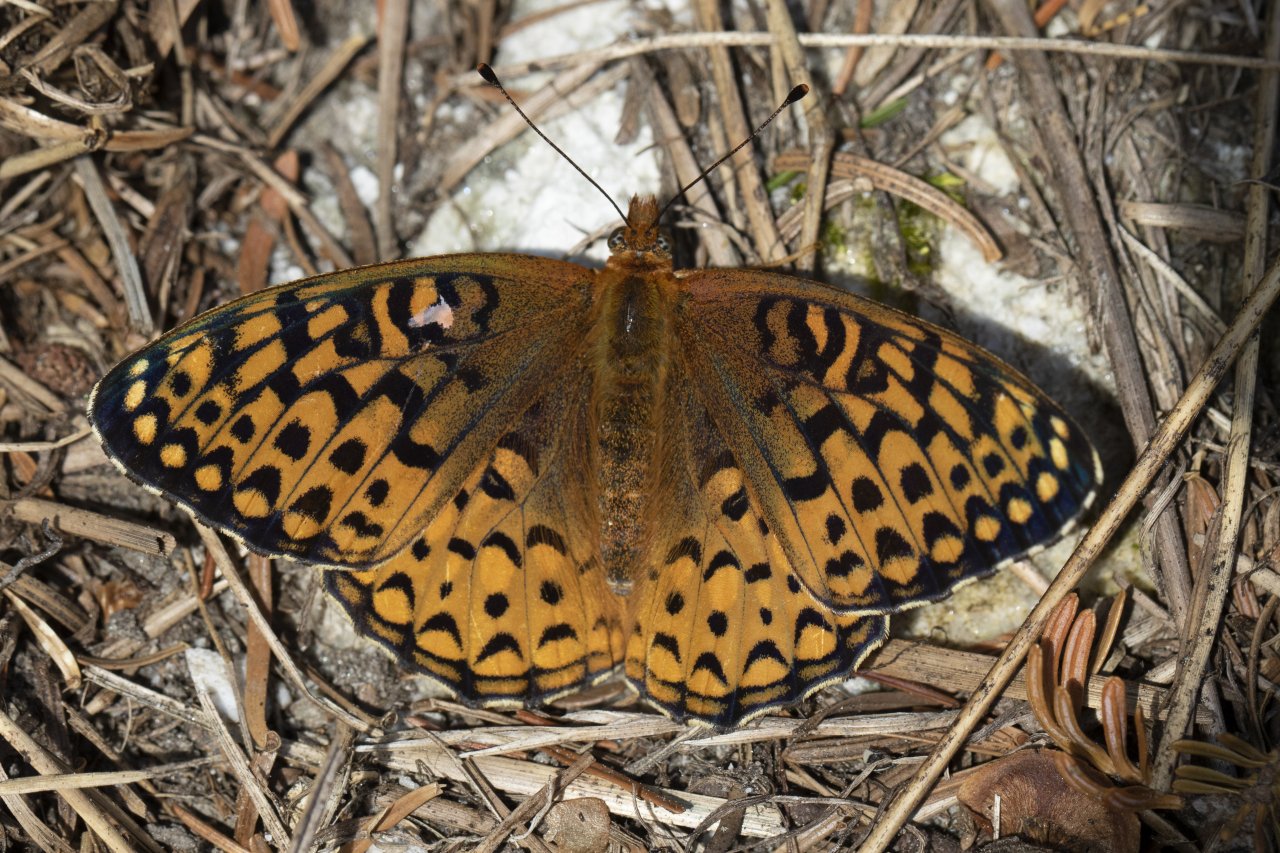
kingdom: Animalia
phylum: Arthropoda
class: Insecta
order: Lepidoptera
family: Nymphalidae
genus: Speyeria
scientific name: Speyeria atlantis
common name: Atlantis Fritillary
